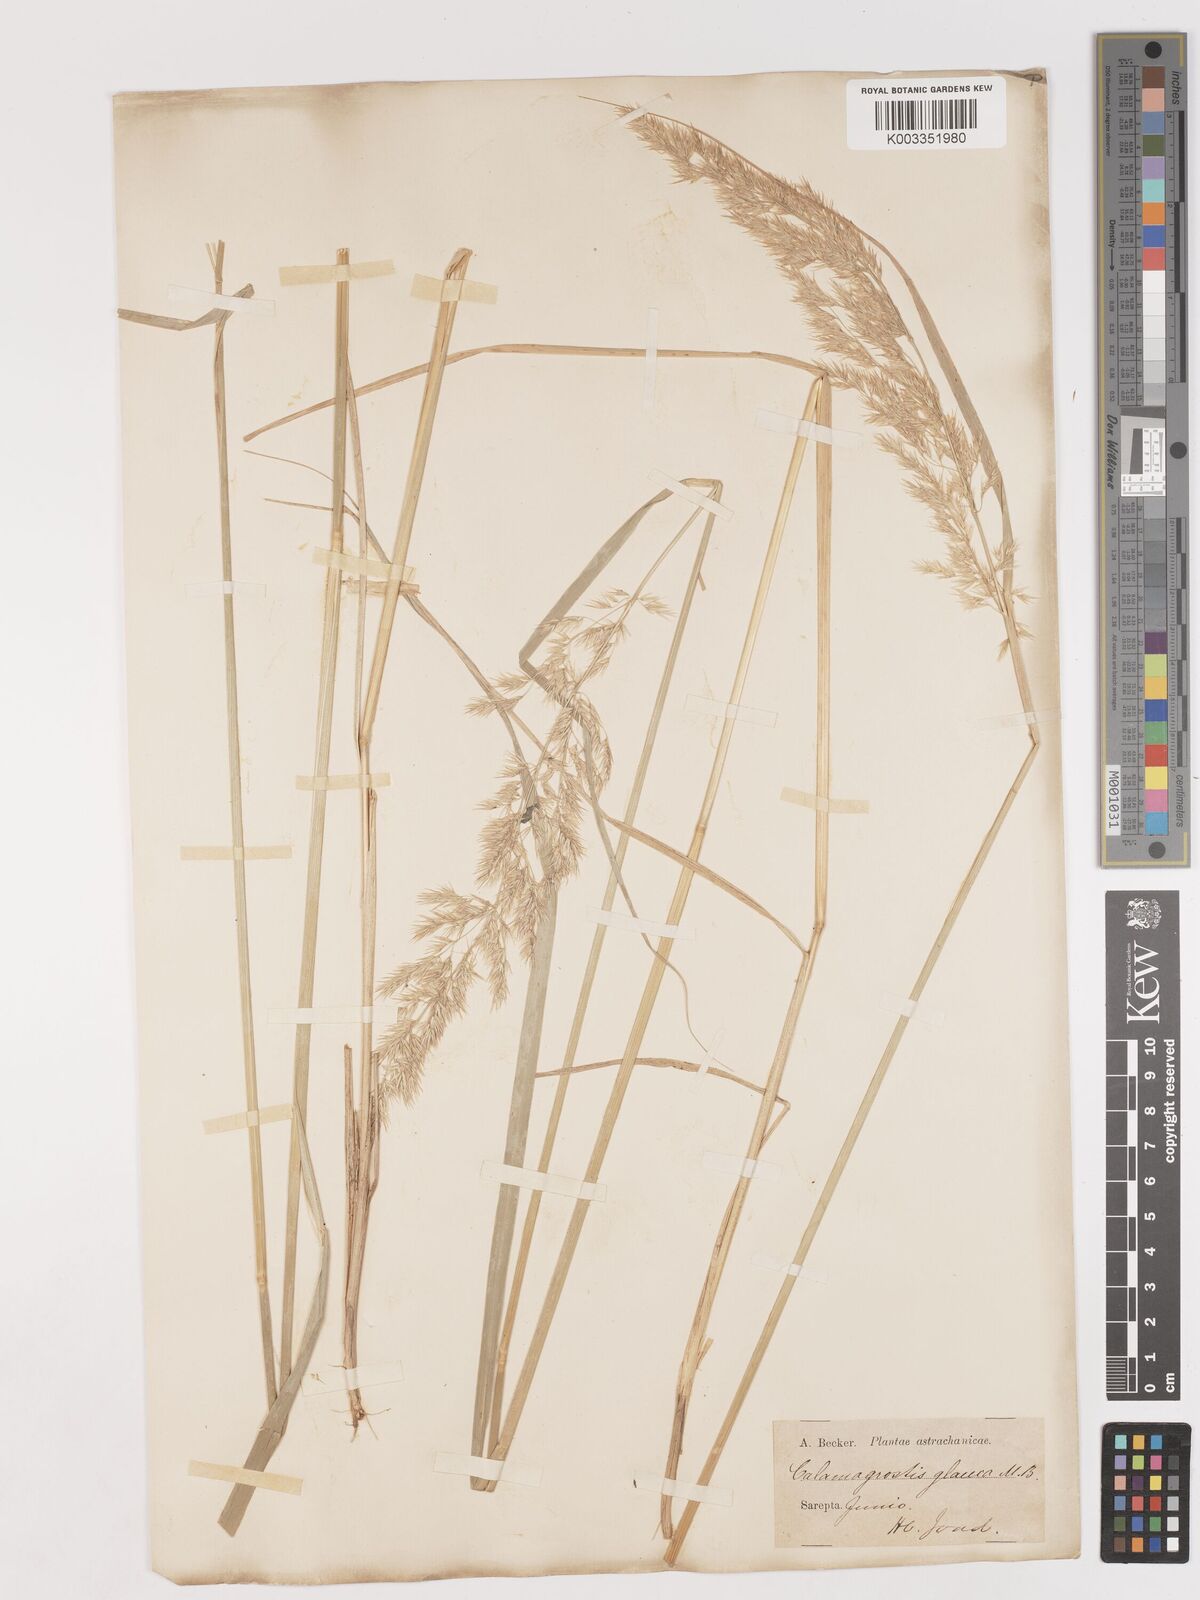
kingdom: Plantae
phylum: Tracheophyta
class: Liliopsida
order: Poales
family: Poaceae
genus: Calamagrostis
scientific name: Calamagrostis pseudophragmites
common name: Coastal small-reed
